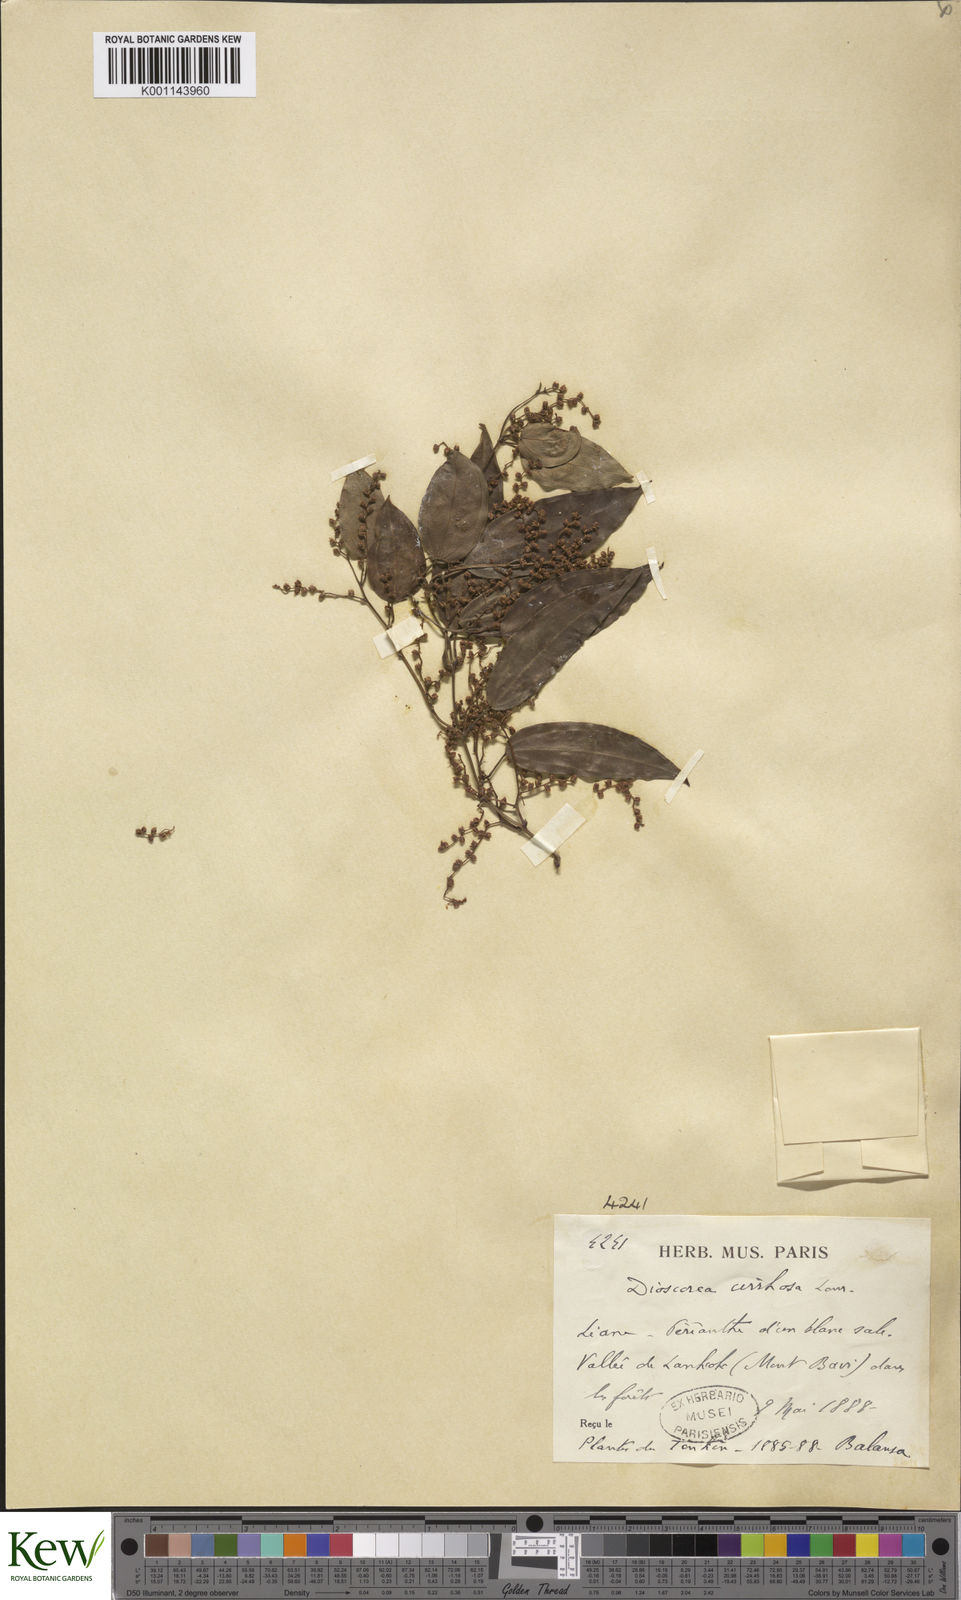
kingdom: Plantae
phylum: Tracheophyta
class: Liliopsida
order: Dioscoreales
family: Dioscoreaceae
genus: Dioscorea
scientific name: Dioscorea cirrhosa
